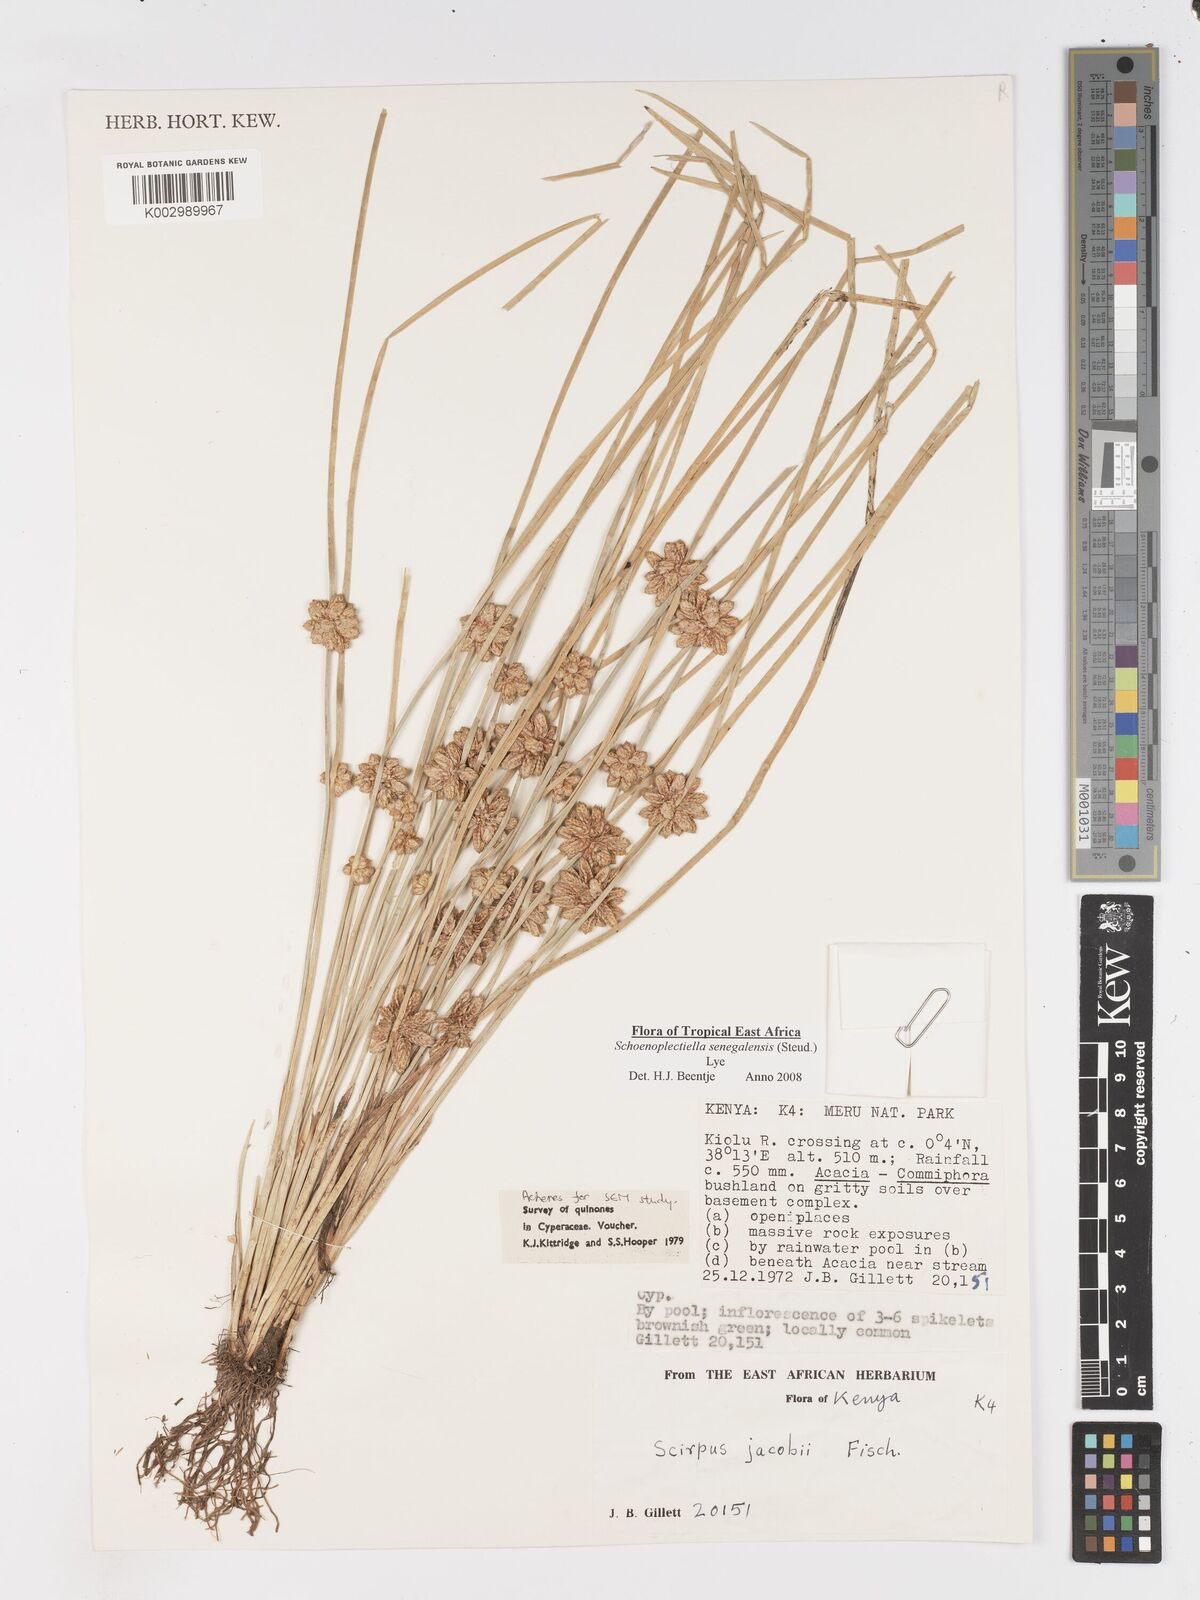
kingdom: Plantae
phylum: Tracheophyta
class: Liliopsida
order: Poales
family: Cyperaceae
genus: Schoenoplectiella
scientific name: Schoenoplectiella senegalensis
